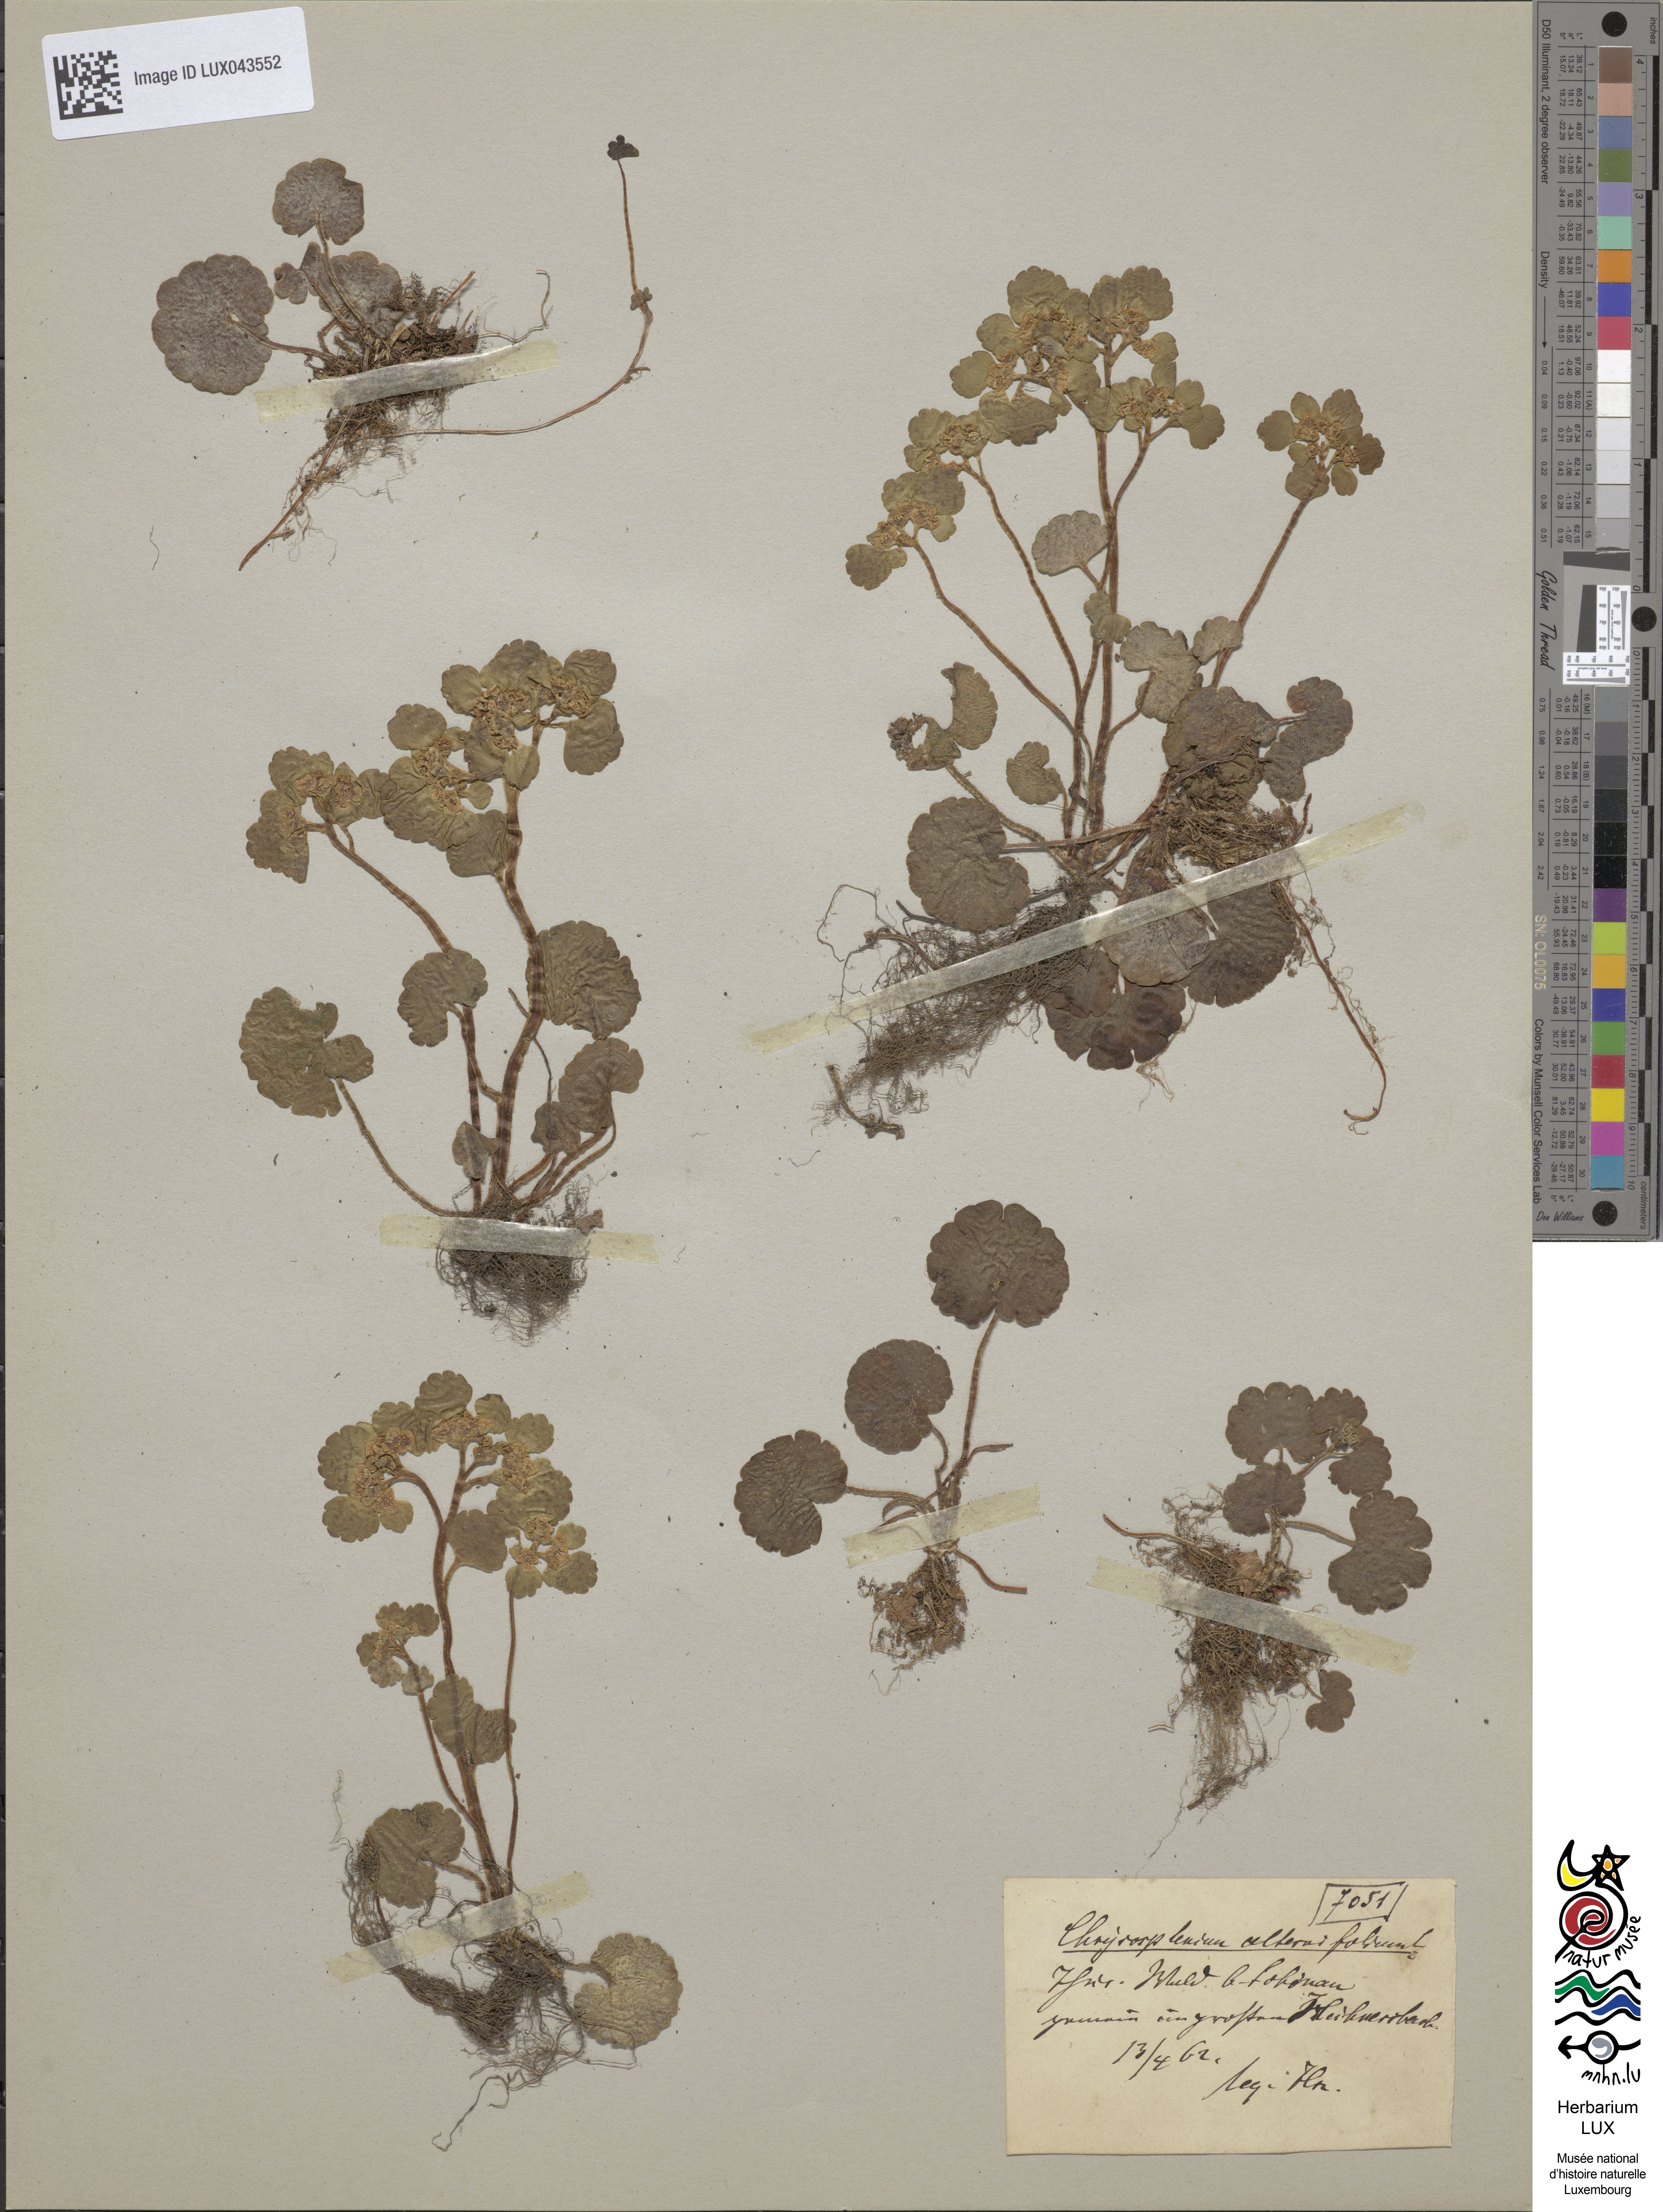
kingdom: Plantae
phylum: Tracheophyta
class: Magnoliopsida
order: Saxifragales
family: Saxifragaceae
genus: Chrysosplenium
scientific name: Chrysosplenium alternifolium
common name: Alternate-leaved golden-saxifrage
